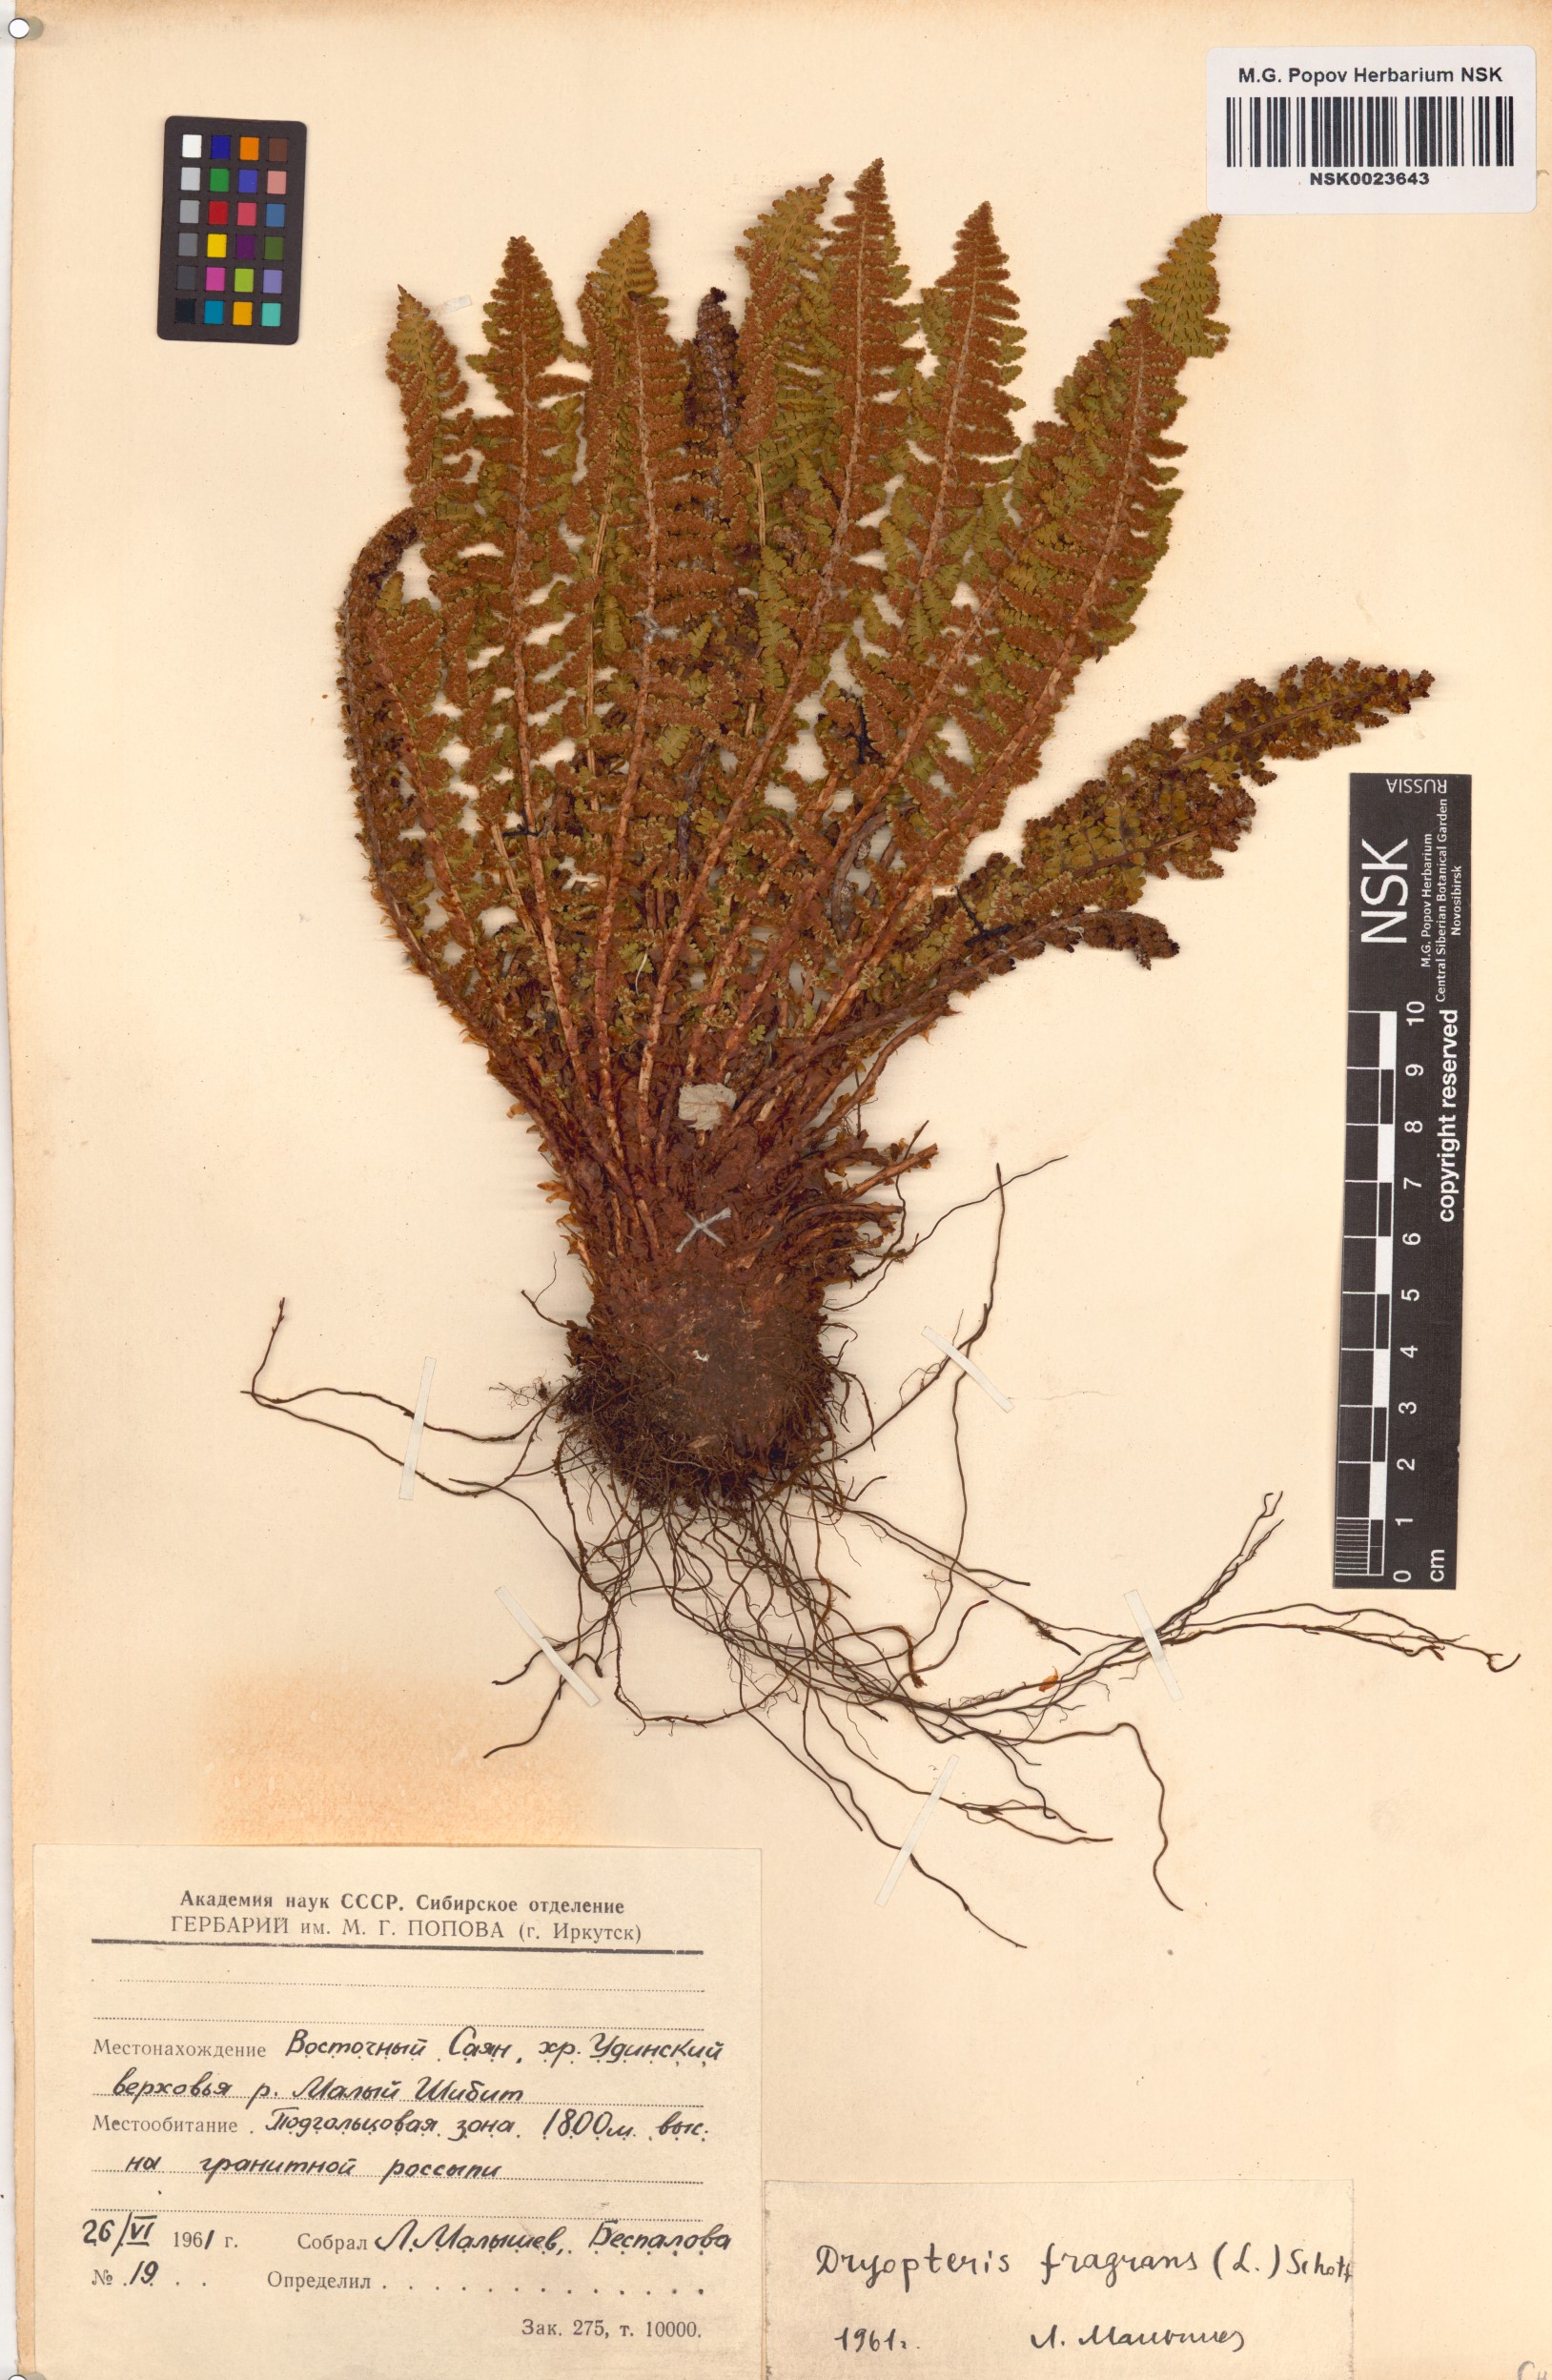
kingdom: Plantae
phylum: Tracheophyta
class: Polypodiopsida
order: Polypodiales
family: Dryopteridaceae
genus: Dryopteris
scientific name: Dryopteris fragrans
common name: Fragrant wood fern
